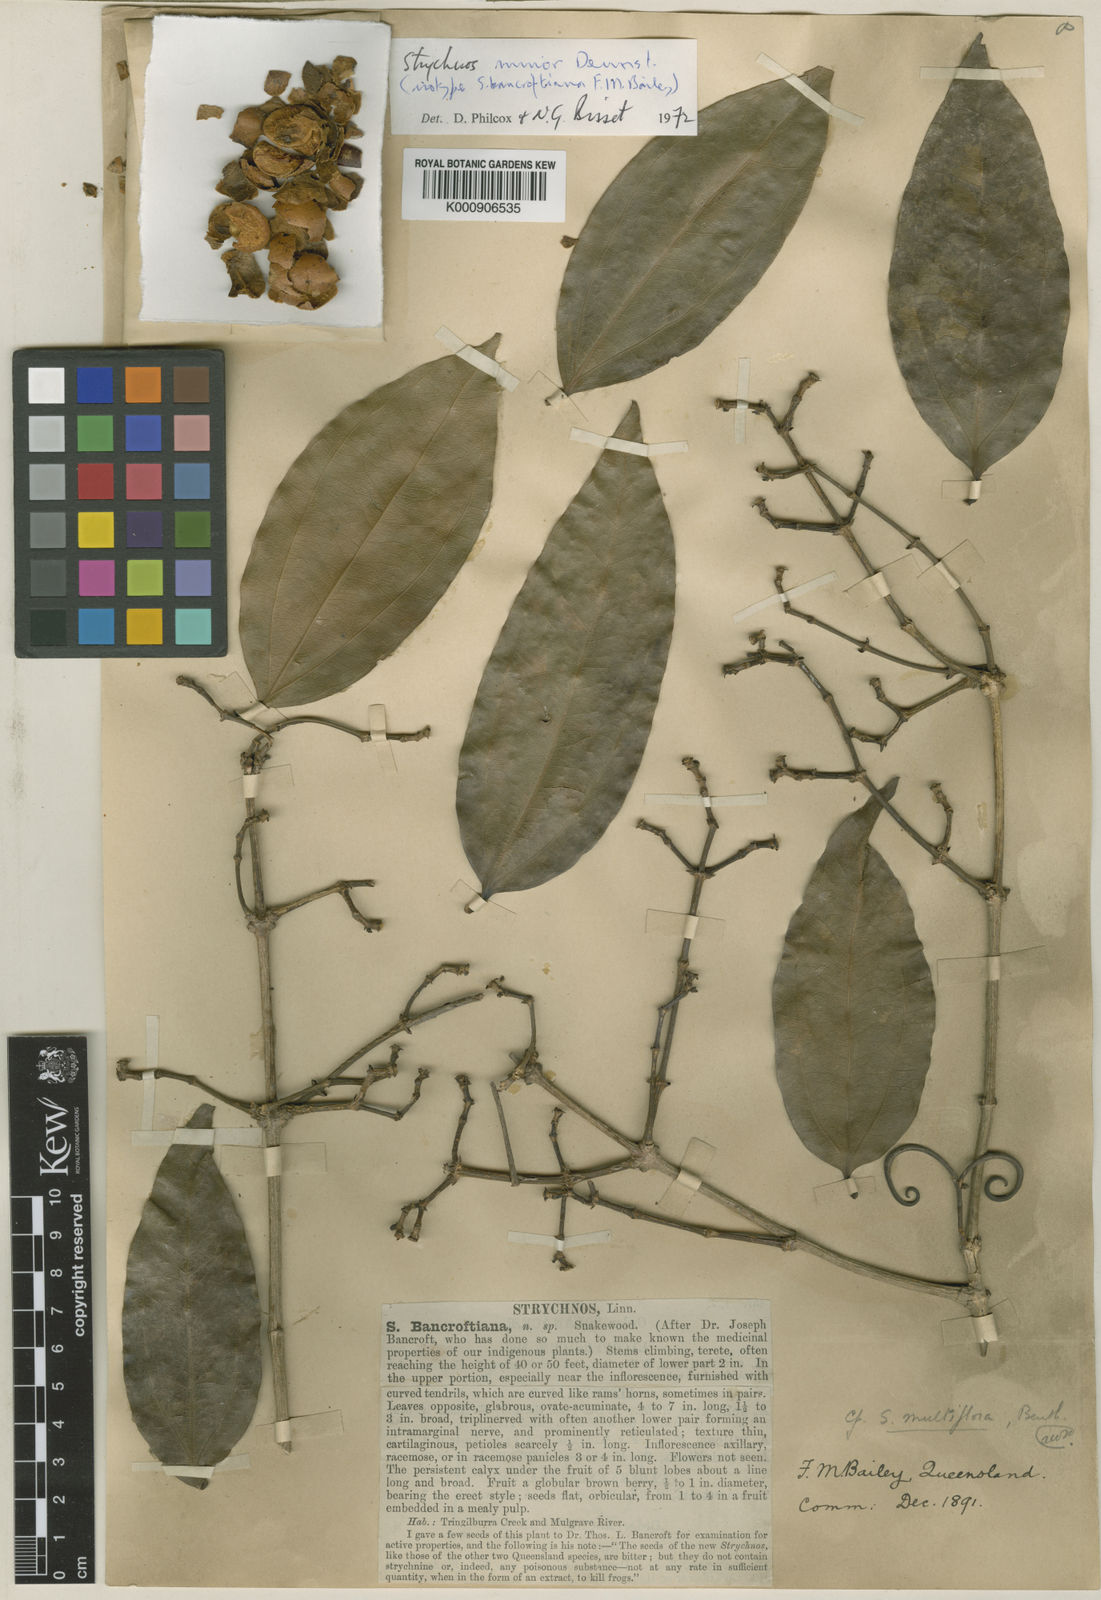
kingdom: Plantae
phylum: Tracheophyta
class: Magnoliopsida
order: Gentianales
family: Loganiaceae
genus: Strychnos
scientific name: Strychnos minor
